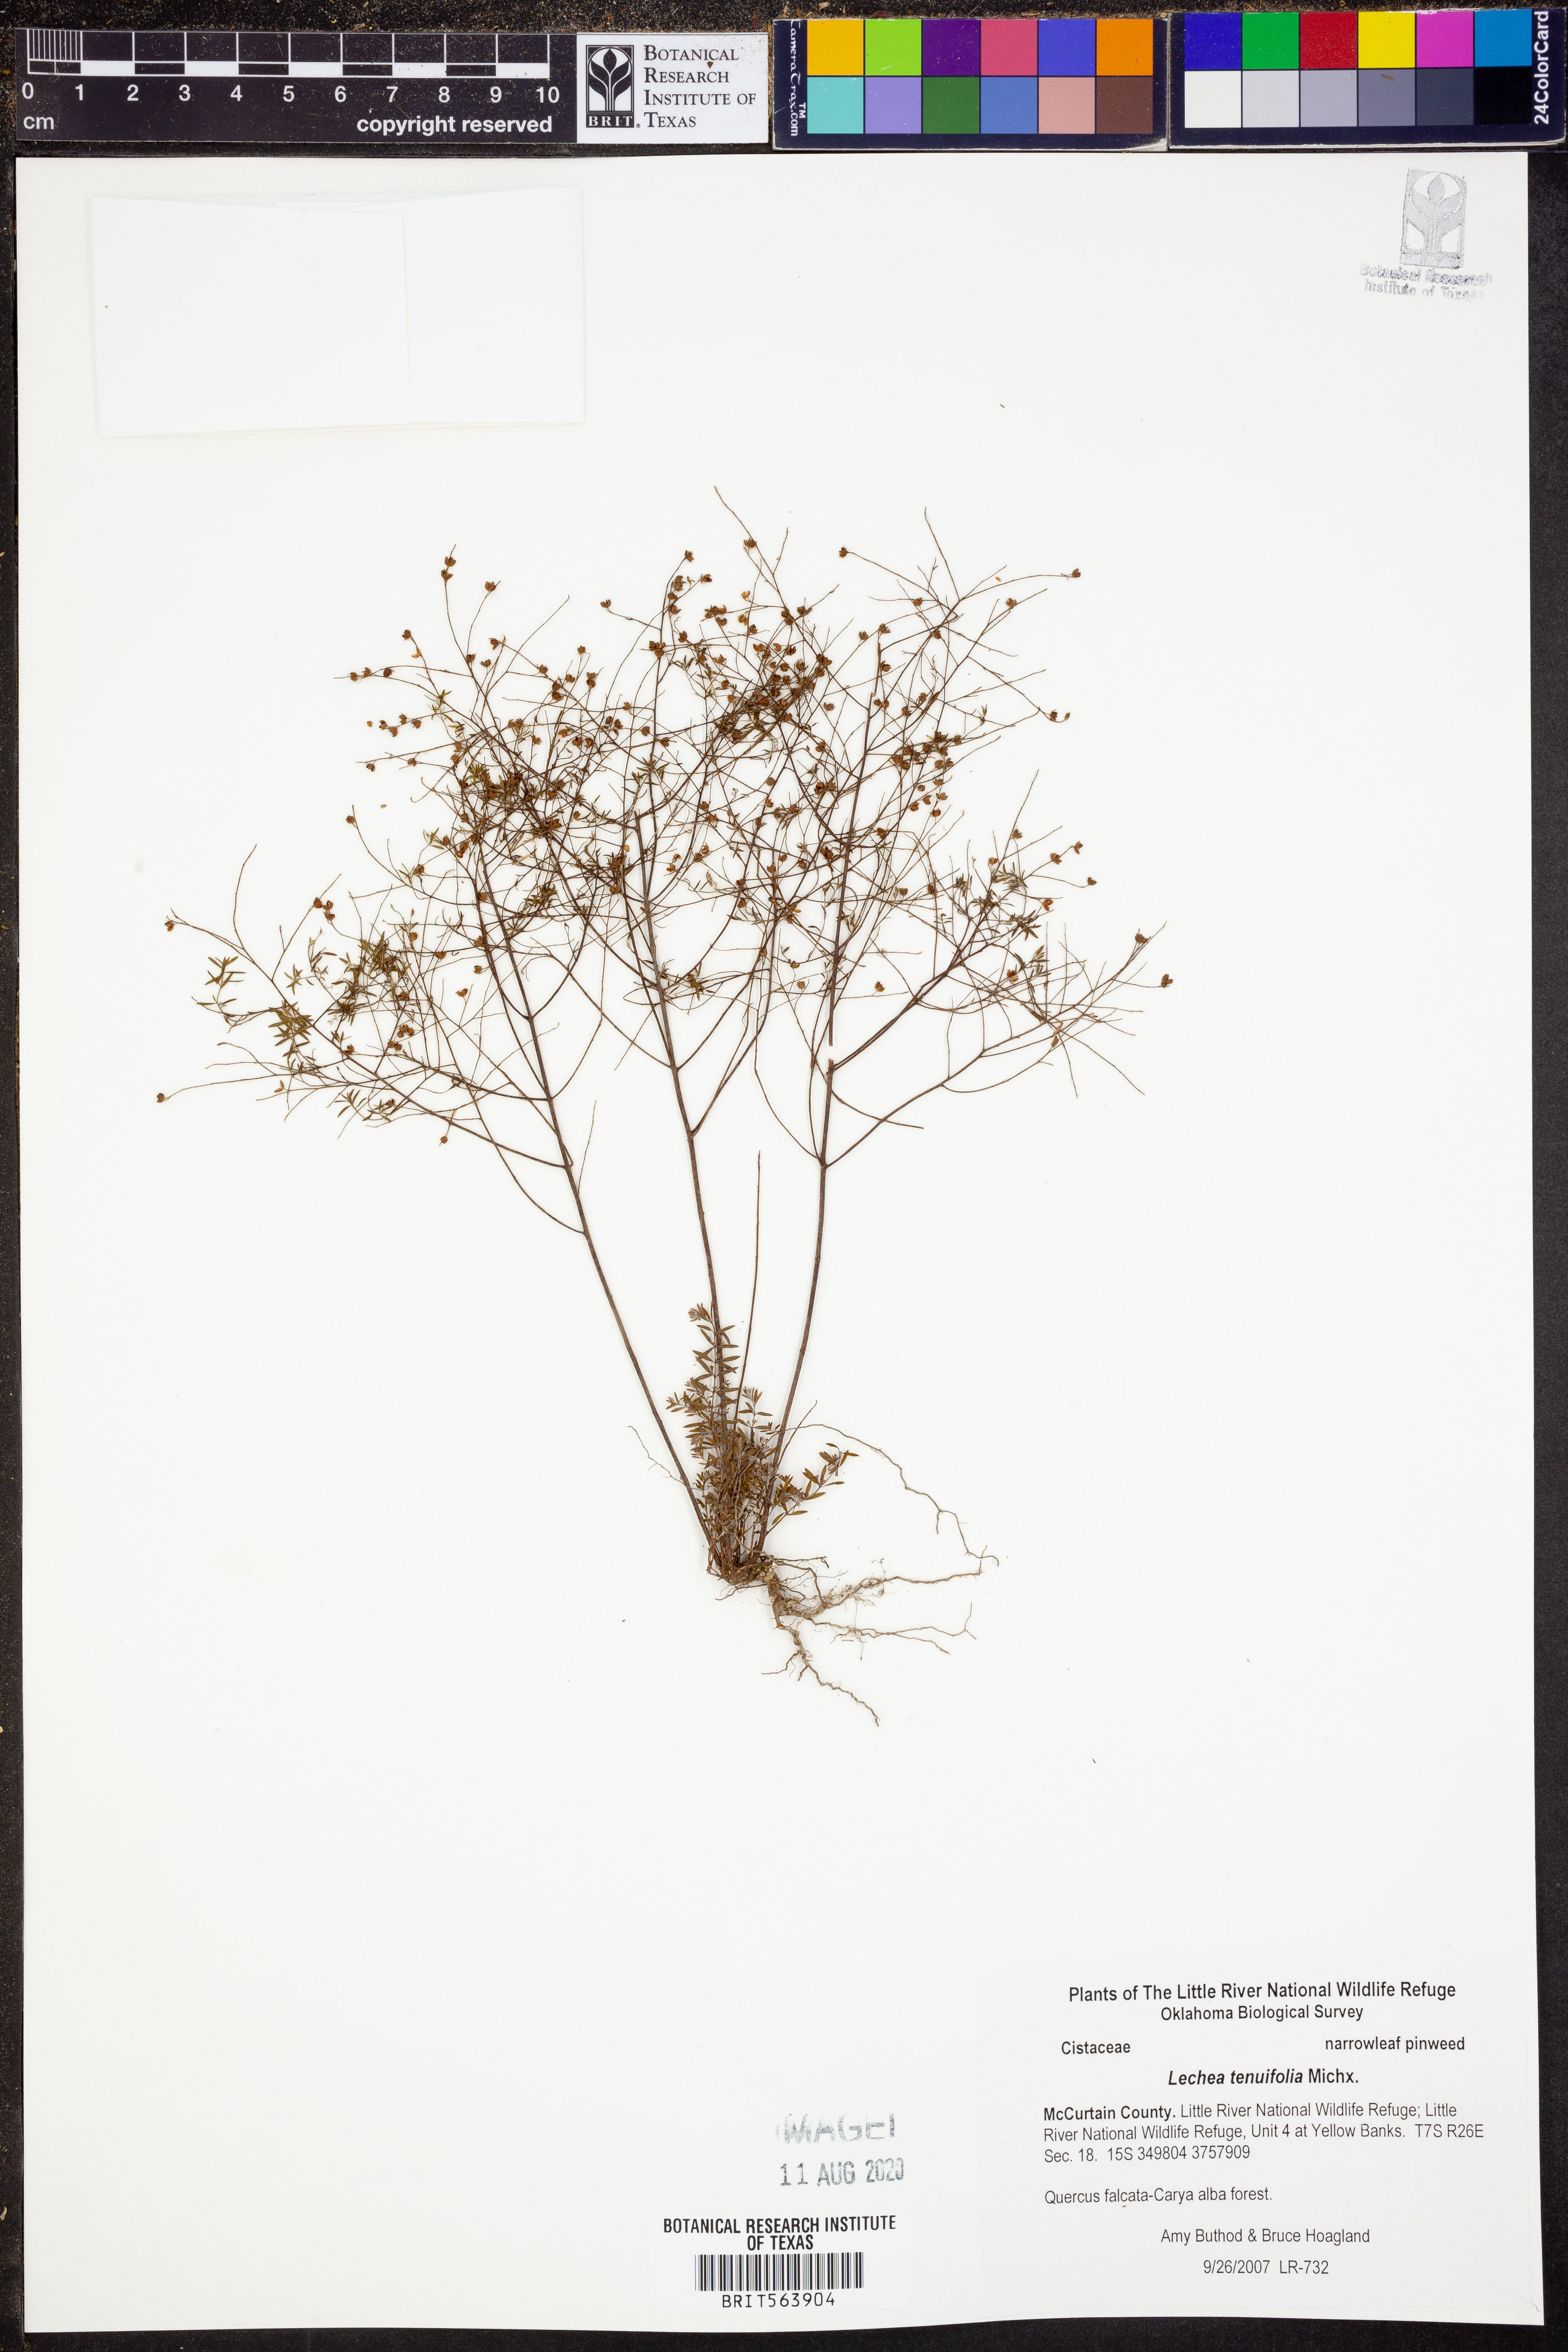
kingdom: Plantae
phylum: Tracheophyta
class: Magnoliopsida
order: Malvales
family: Cistaceae
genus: Lechea
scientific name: Lechea tenuifolia
